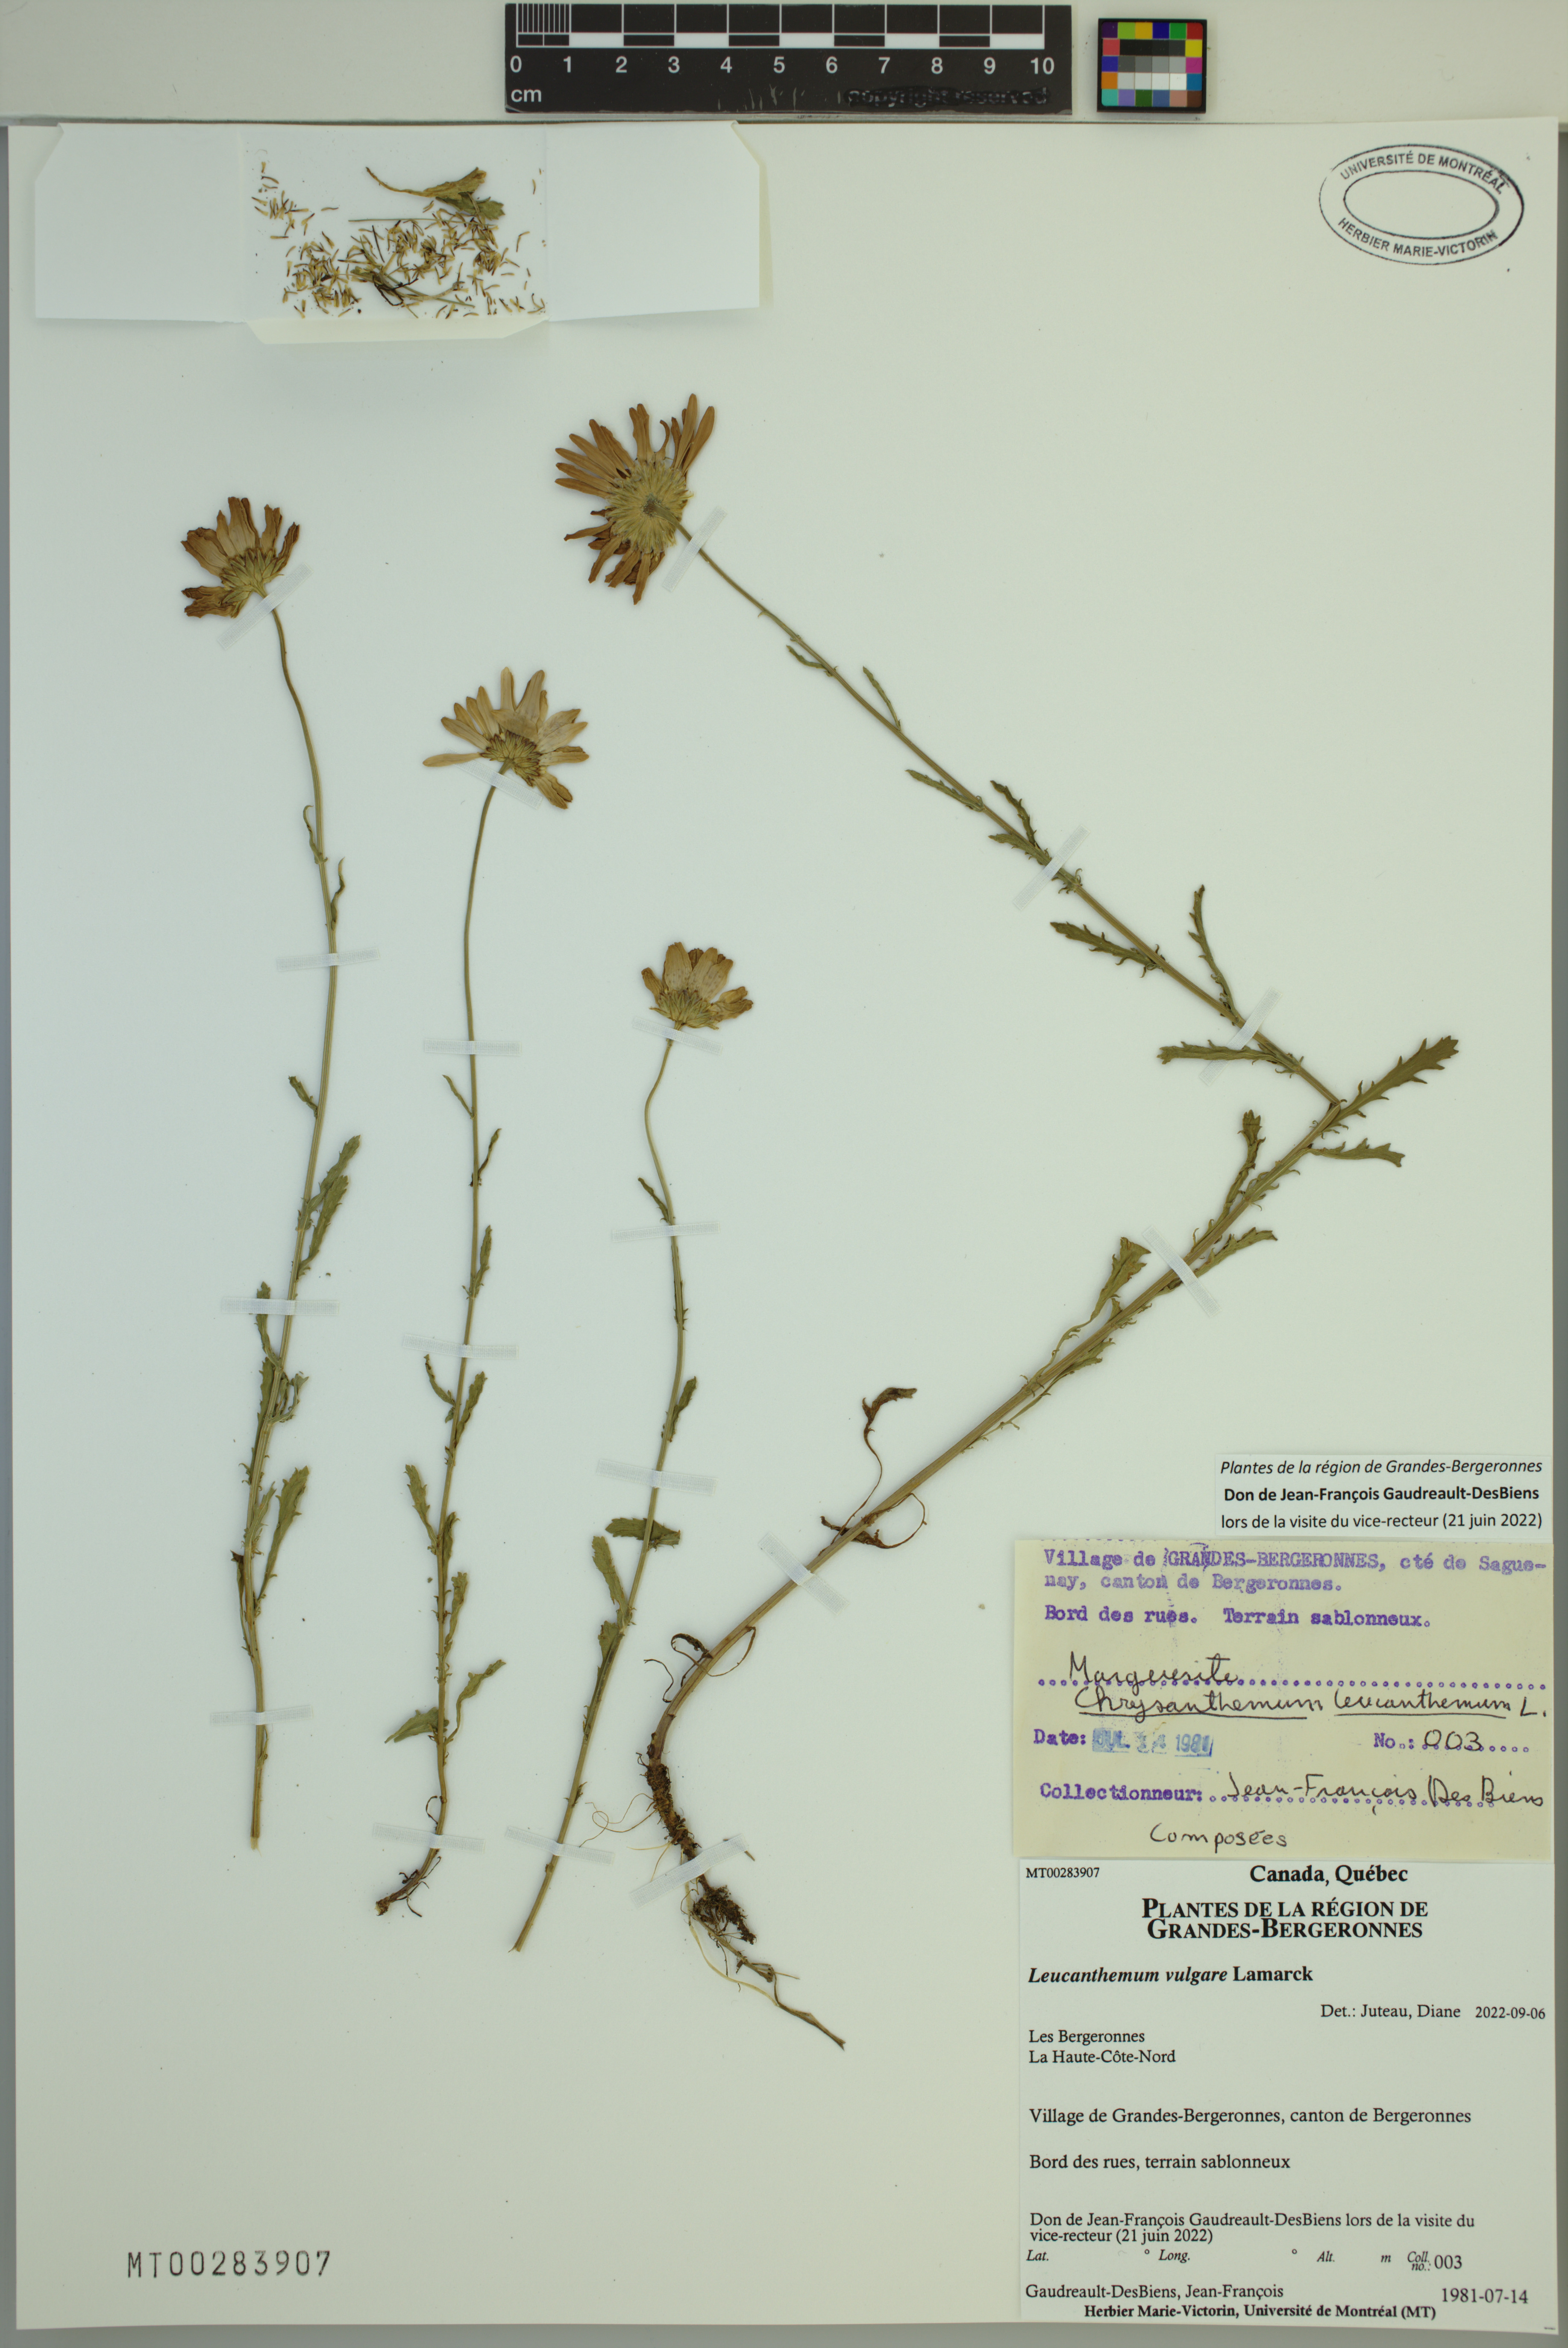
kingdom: Plantae
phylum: Tracheophyta
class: Magnoliopsida
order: Asterales
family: Asteraceae
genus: Leucanthemum
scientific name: Leucanthemum vulgare
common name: Oxeye daisy
